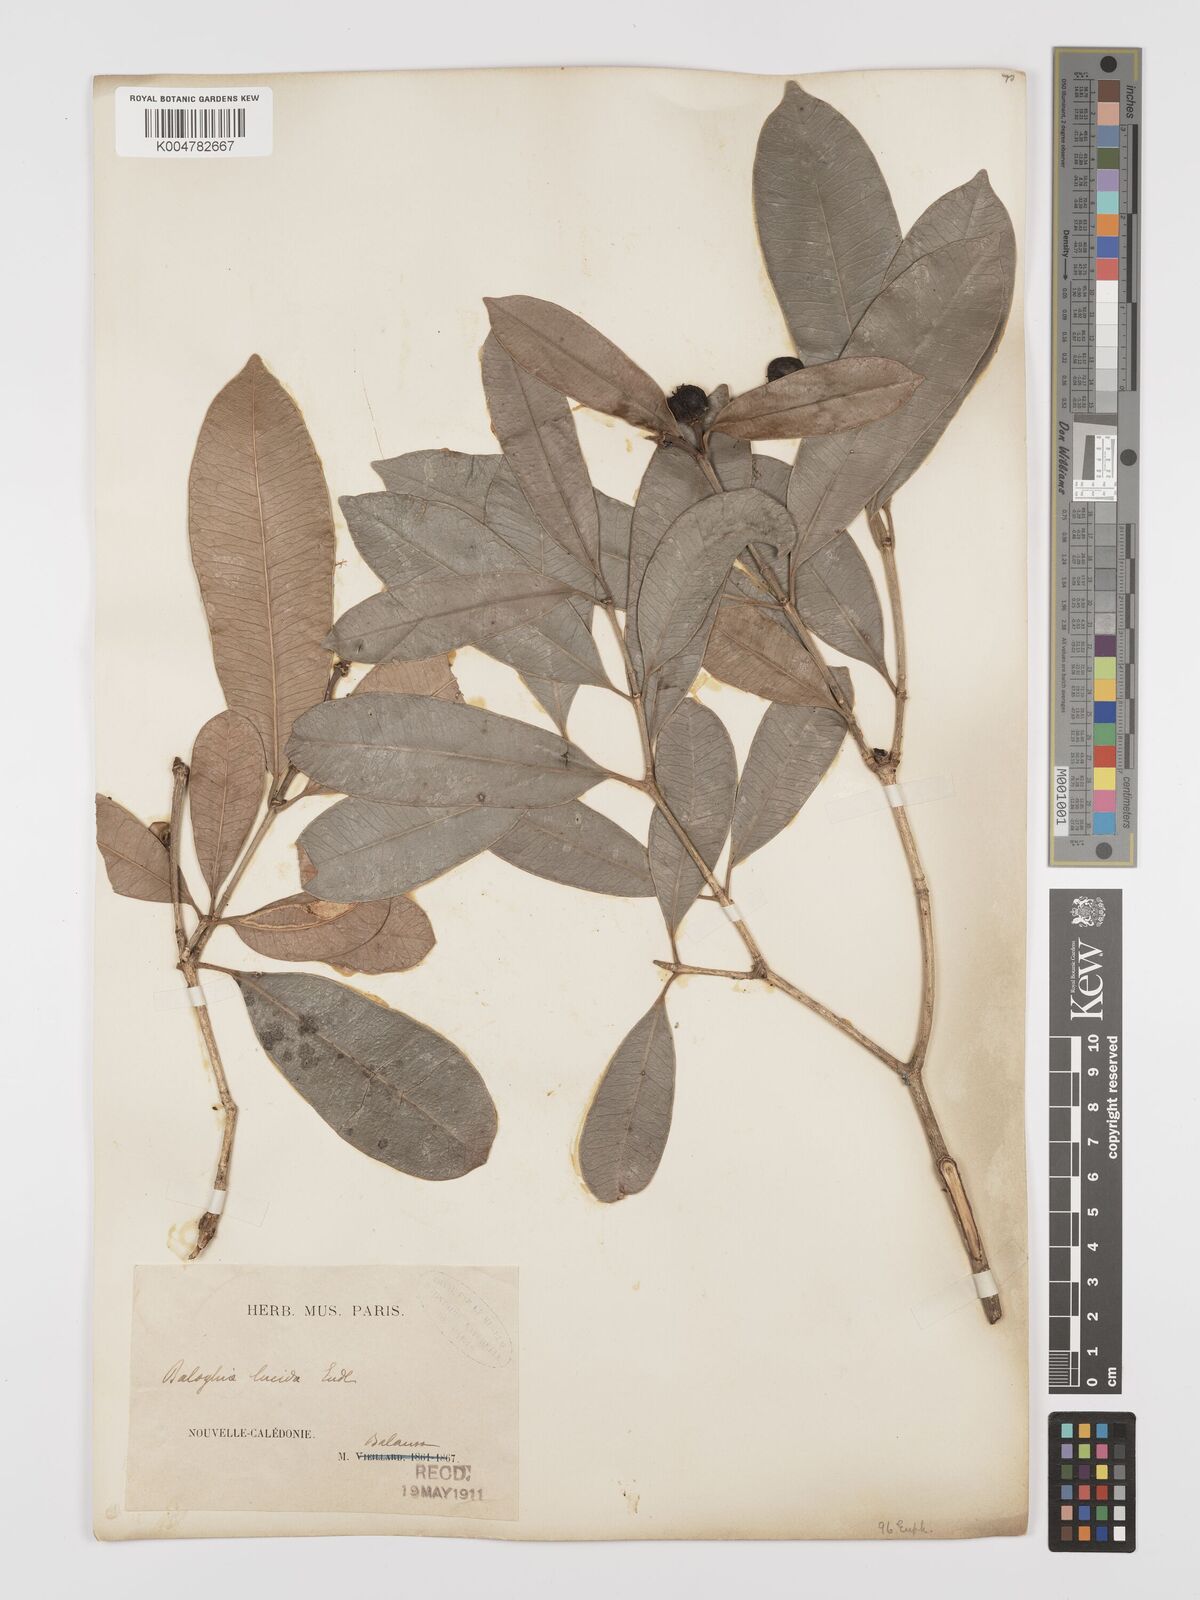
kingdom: Plantae
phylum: Tracheophyta
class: Magnoliopsida
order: Malpighiales
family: Euphorbiaceae
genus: Baloghia
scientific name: Baloghia inophylla
